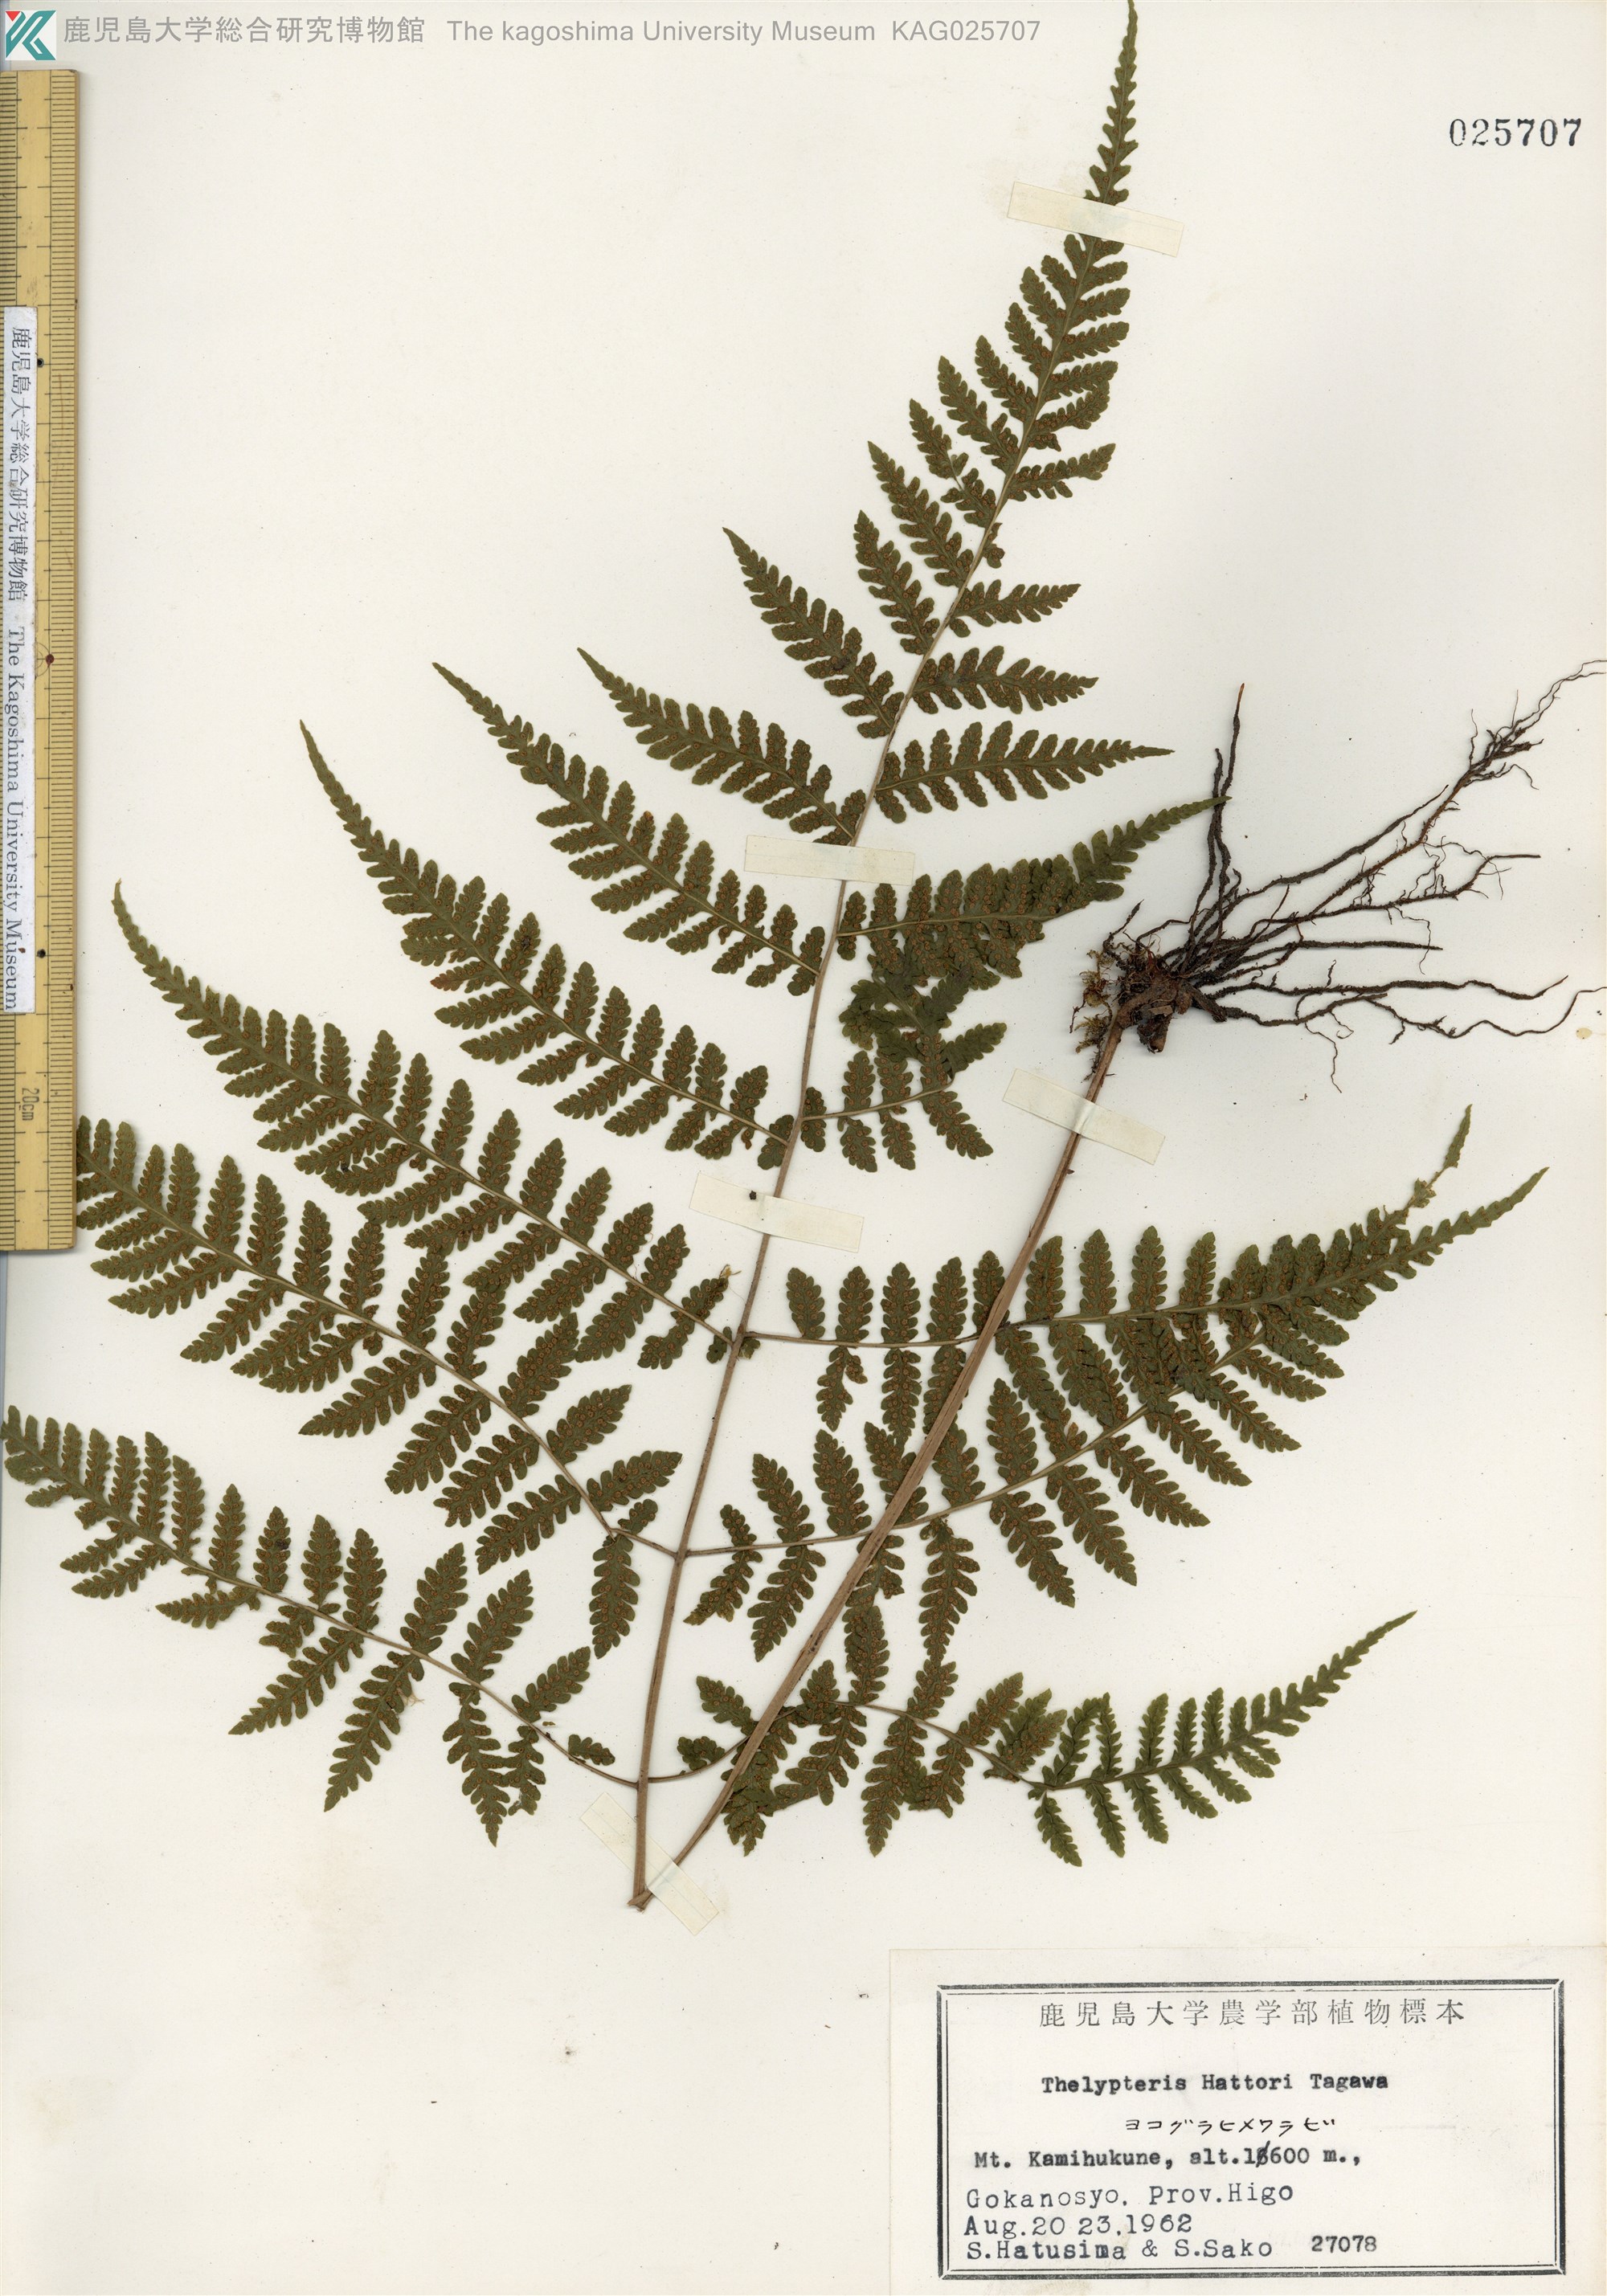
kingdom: Plantae
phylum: Tracheophyta
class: Polypodiopsida
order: Polypodiales
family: Thelypteridaceae
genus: Metathelypteris
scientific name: Metathelypteris hattori
